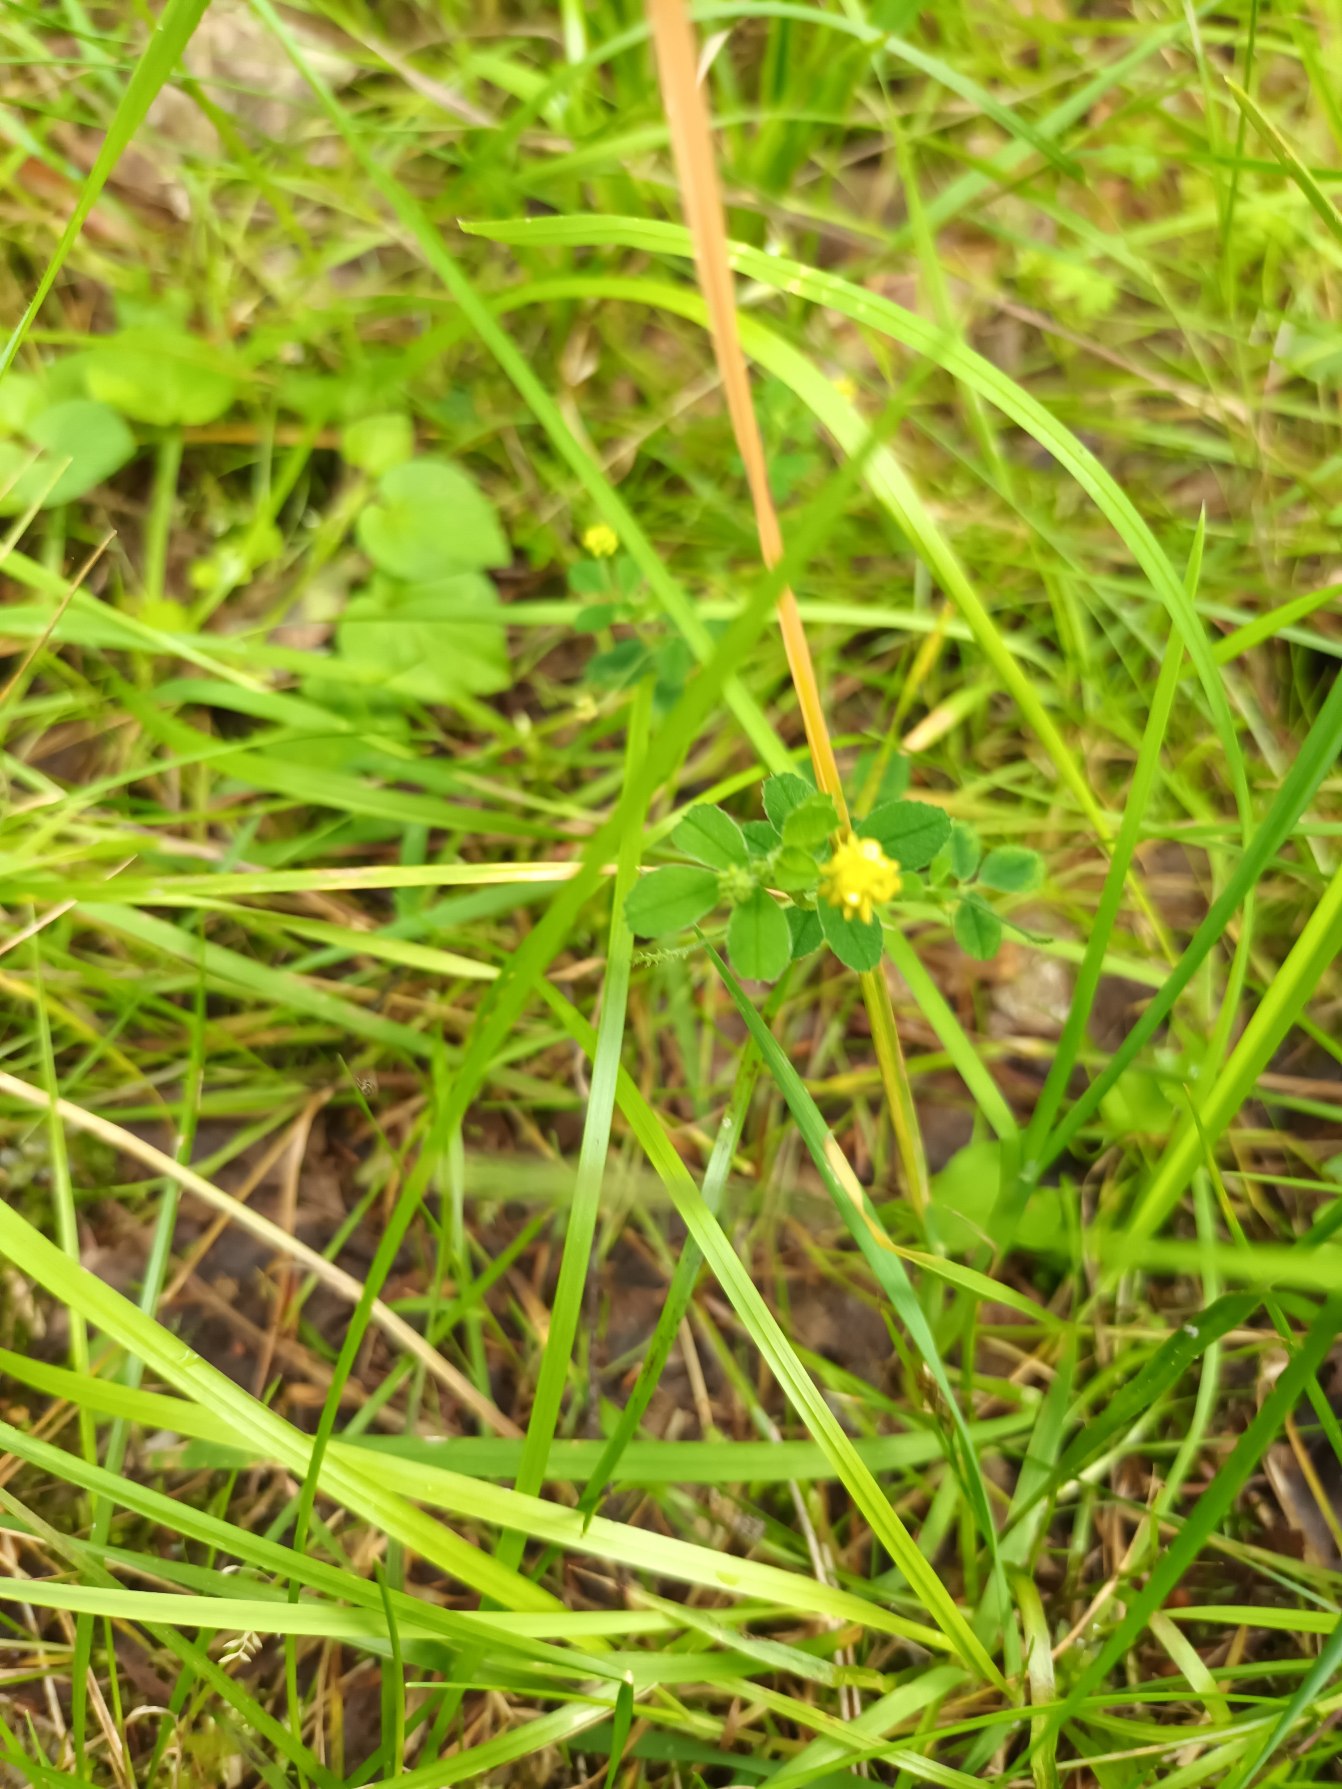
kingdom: Plantae
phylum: Tracheophyta
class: Magnoliopsida
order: Fabales
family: Fabaceae
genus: Medicago
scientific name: Medicago lupulina
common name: Humle-sneglebælg
